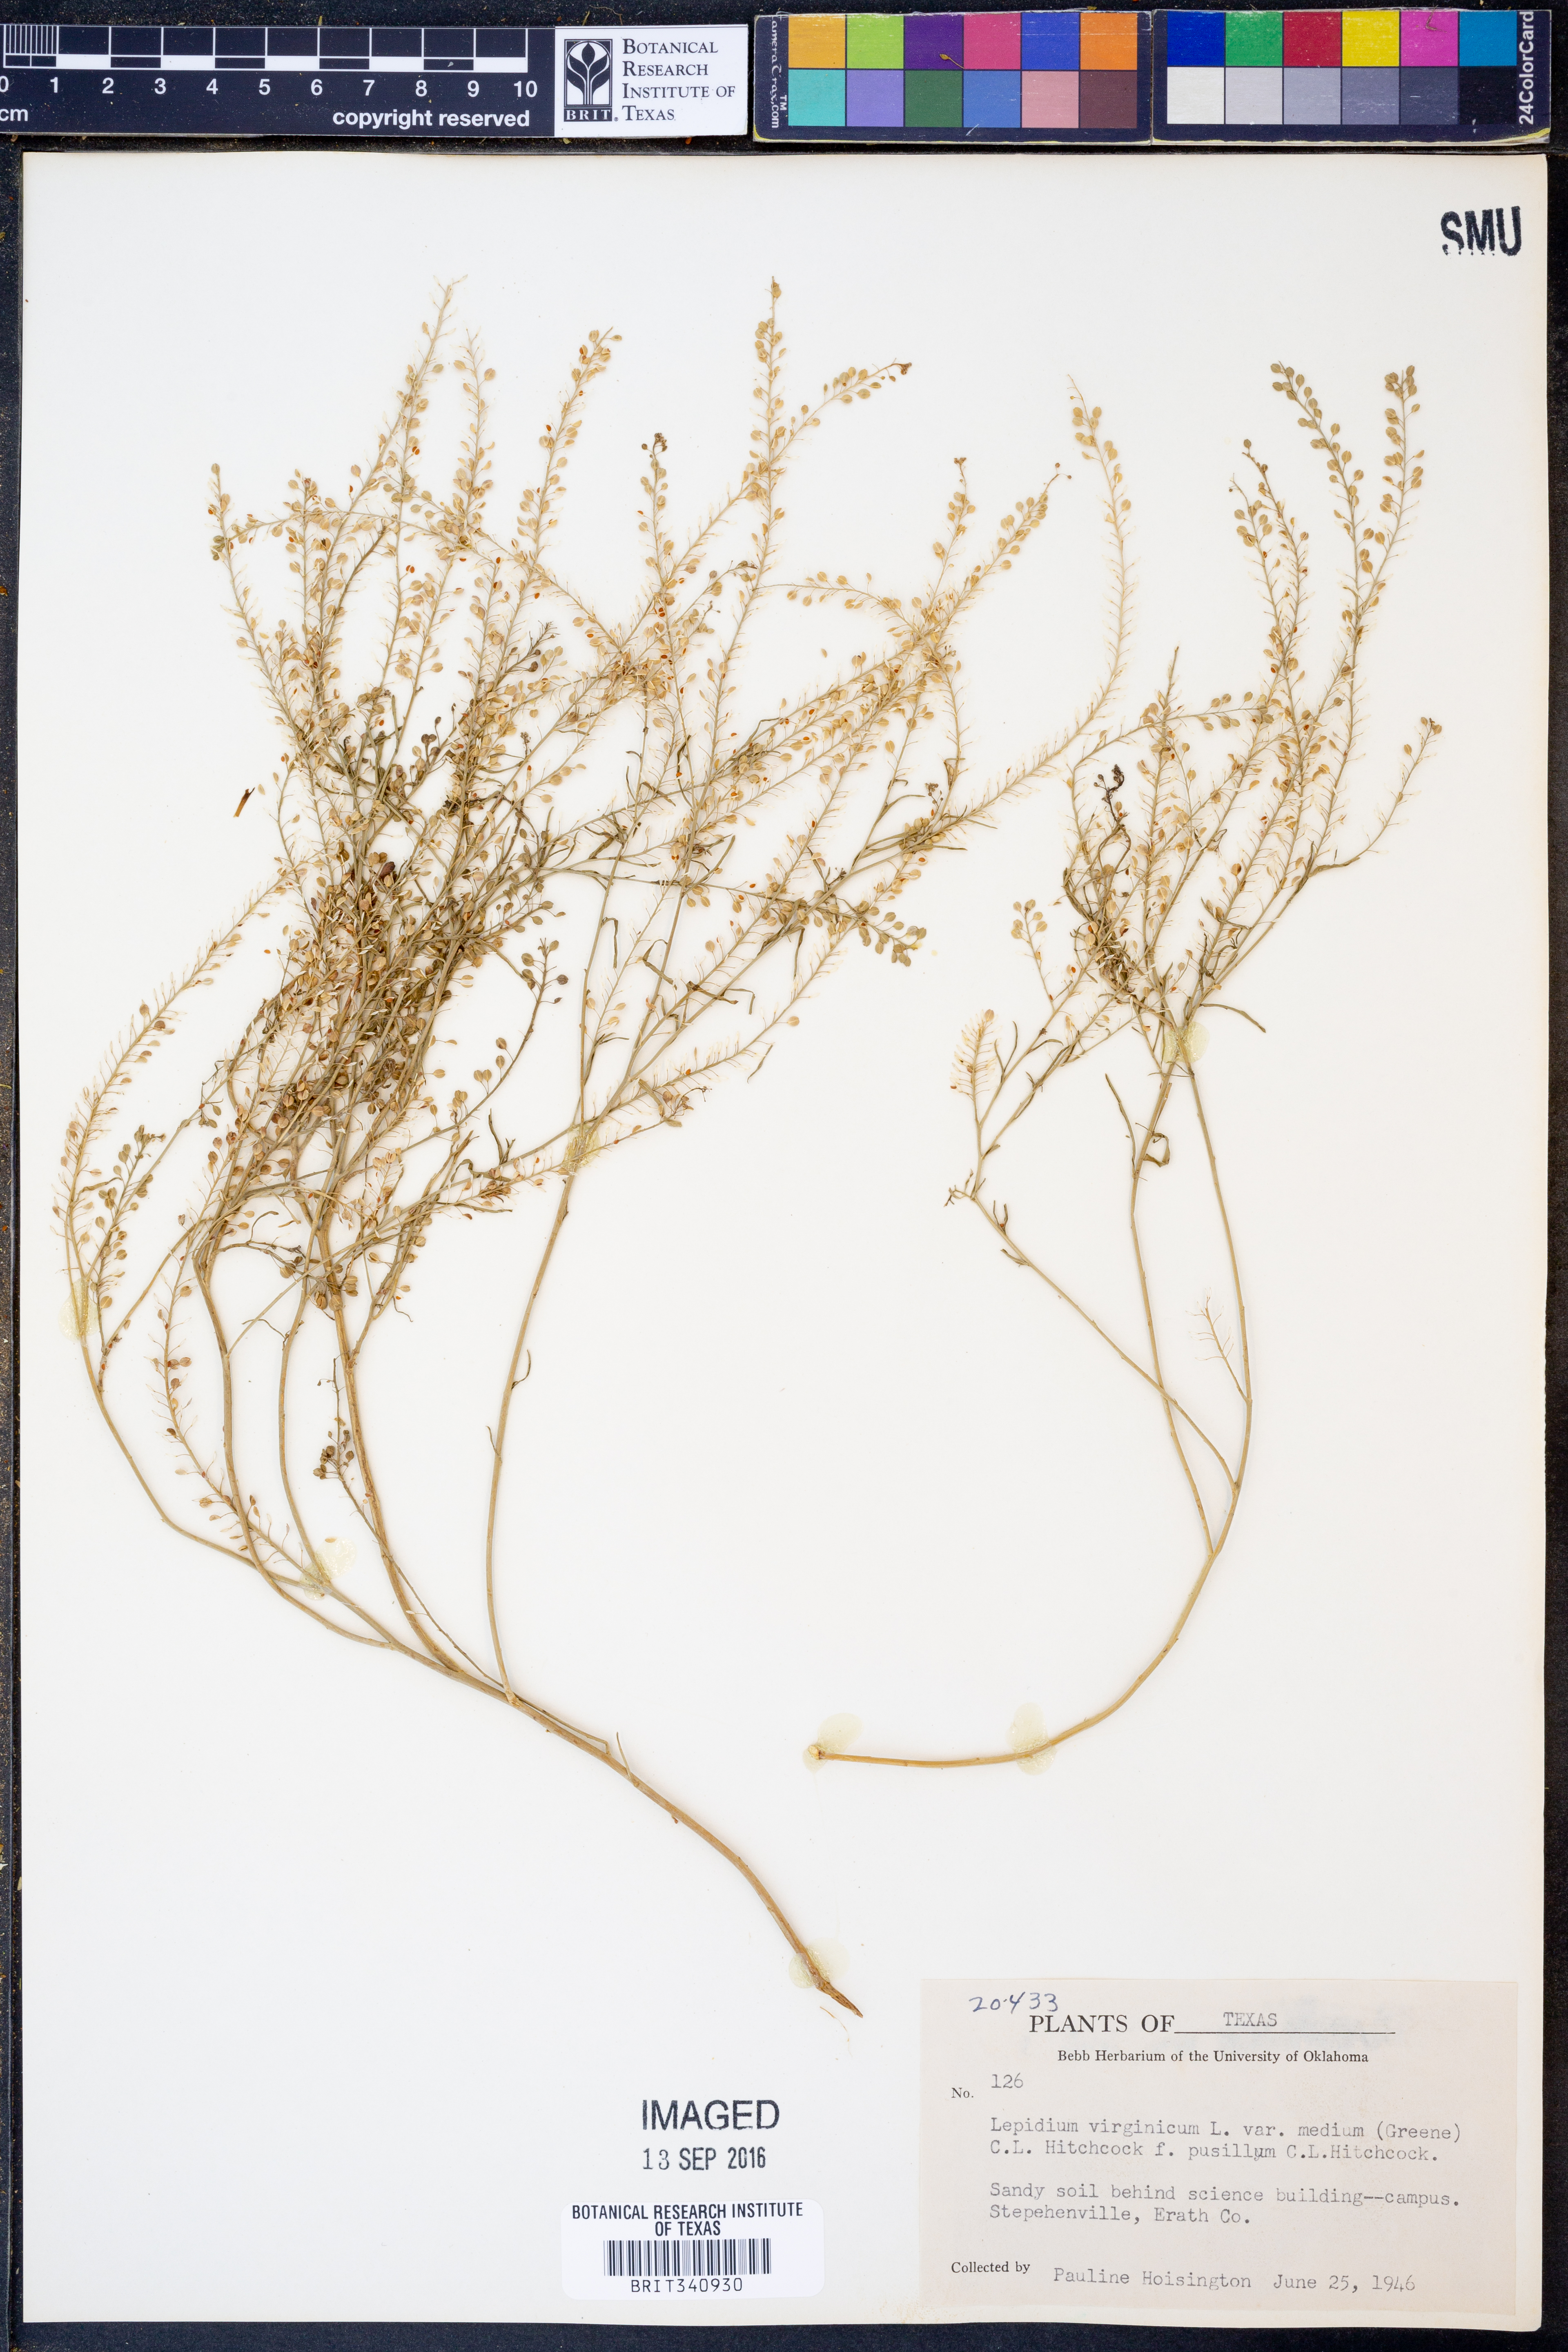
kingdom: Plantae
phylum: Tracheophyta
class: Magnoliopsida
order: Brassicales
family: Brassicaceae
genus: Lepidium
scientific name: Lepidium virginicum
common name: Least pepperwort
